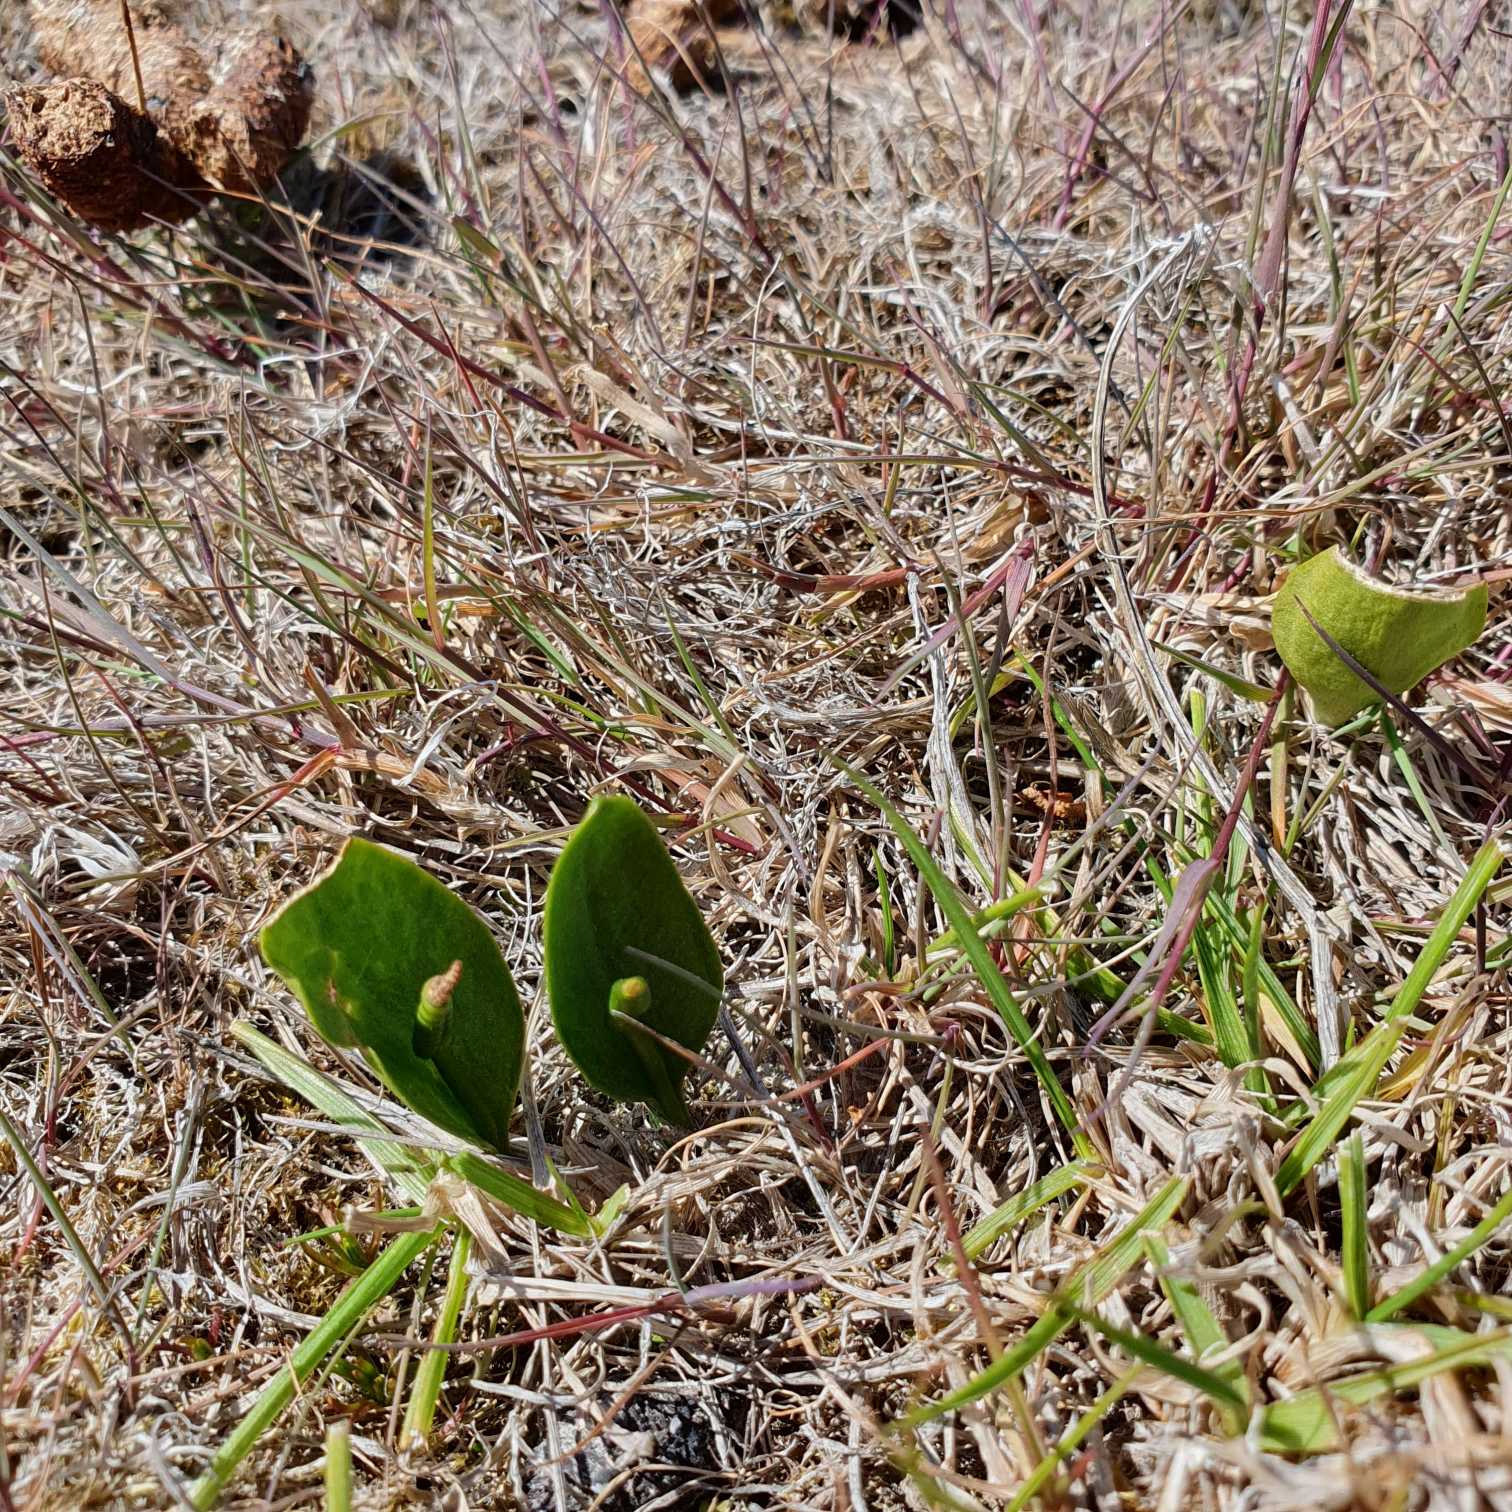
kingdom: Plantae
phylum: Tracheophyta
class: Polypodiopsida
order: Ophioglossales
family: Ophioglossaceae
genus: Ophioglossum
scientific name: Ophioglossum vulgatum
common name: Slangetunge
